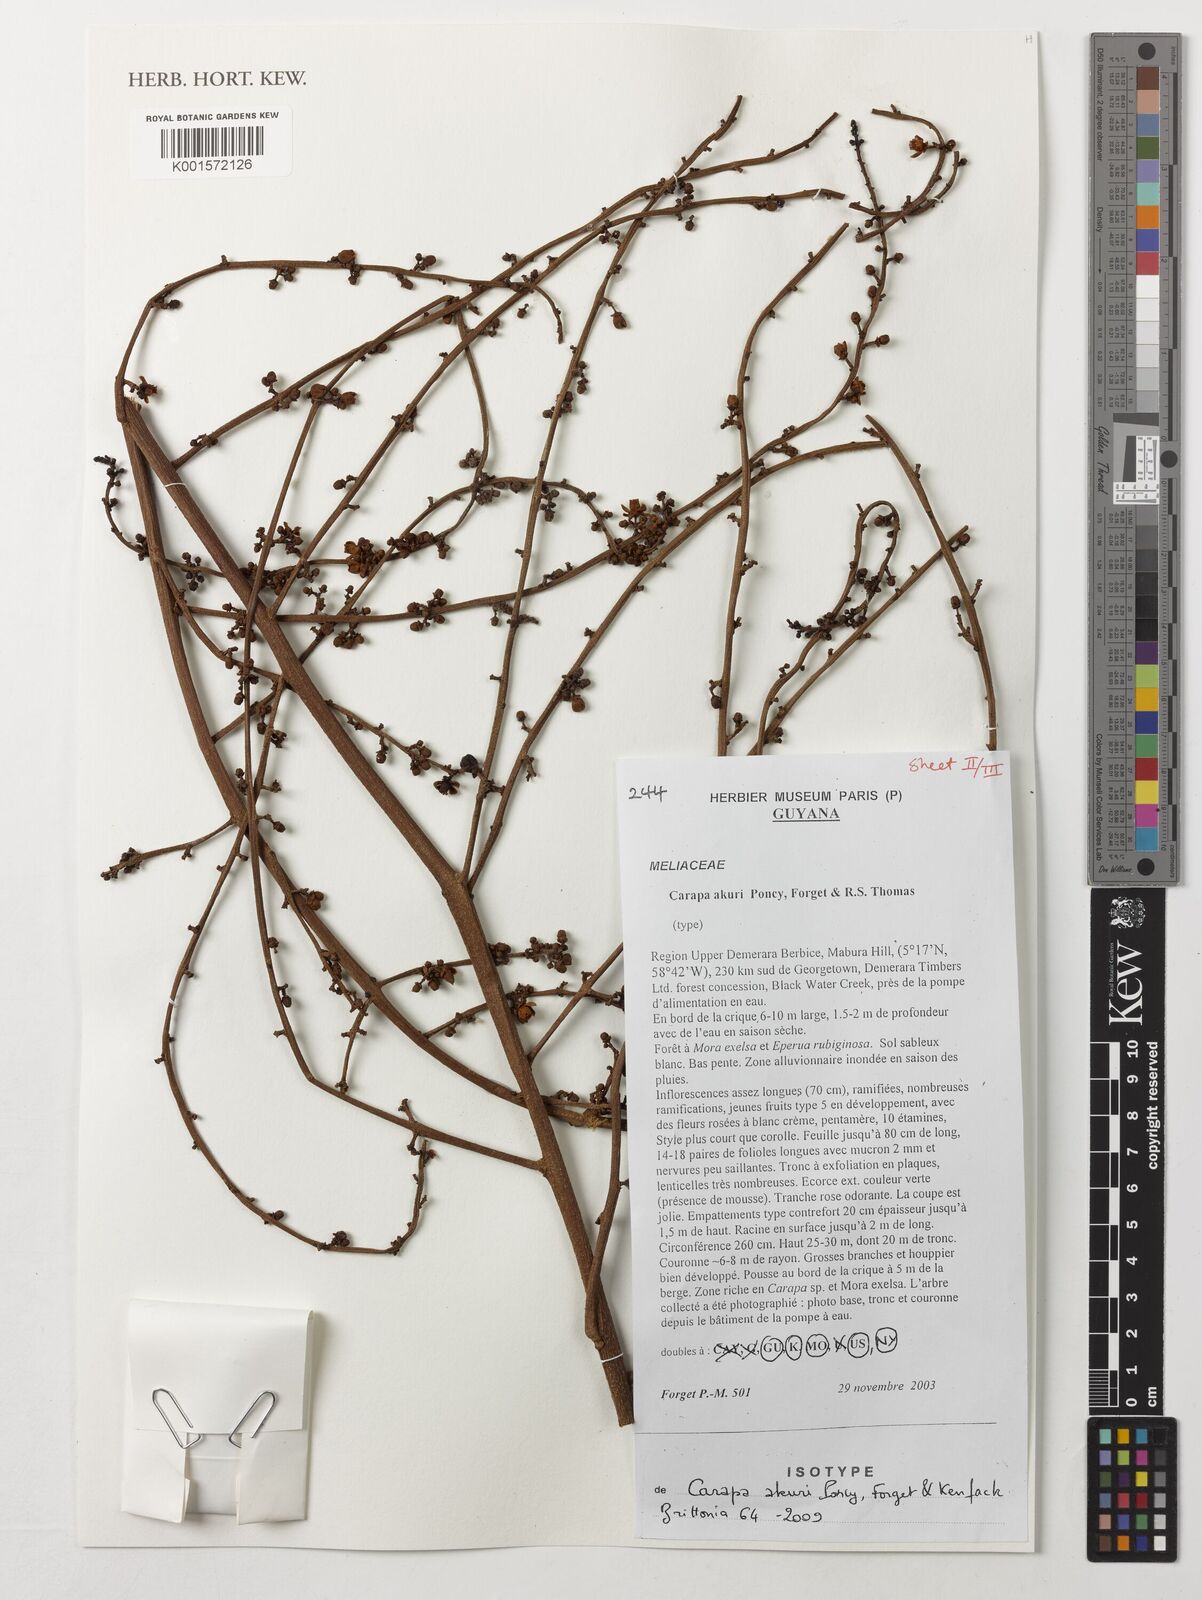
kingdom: Plantae
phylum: Tracheophyta
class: Magnoliopsida
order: Sapindales
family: Meliaceae
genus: Carapa
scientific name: Carapa akuri
